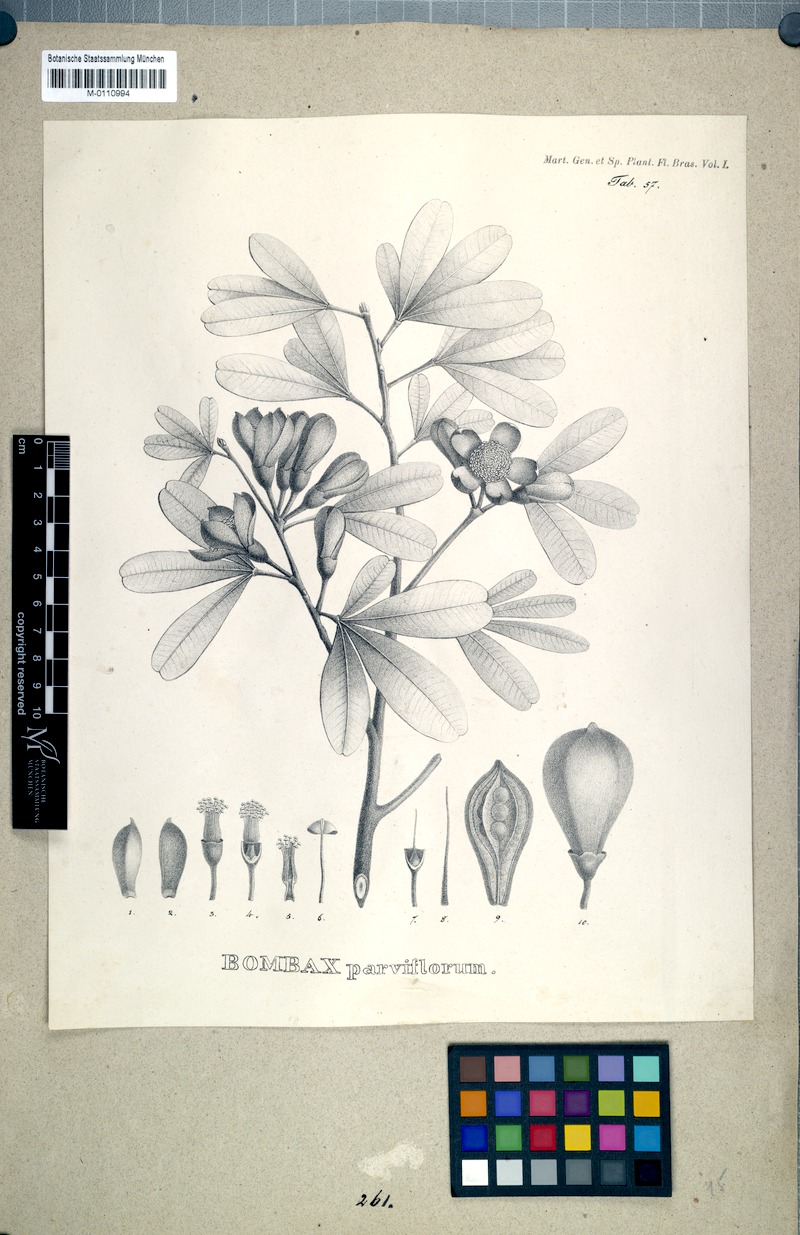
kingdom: Plantae
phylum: Tracheophyta
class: Magnoliopsida
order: Malvales
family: Malvaceae
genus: Eriotheca
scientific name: Eriotheca parvifolia
